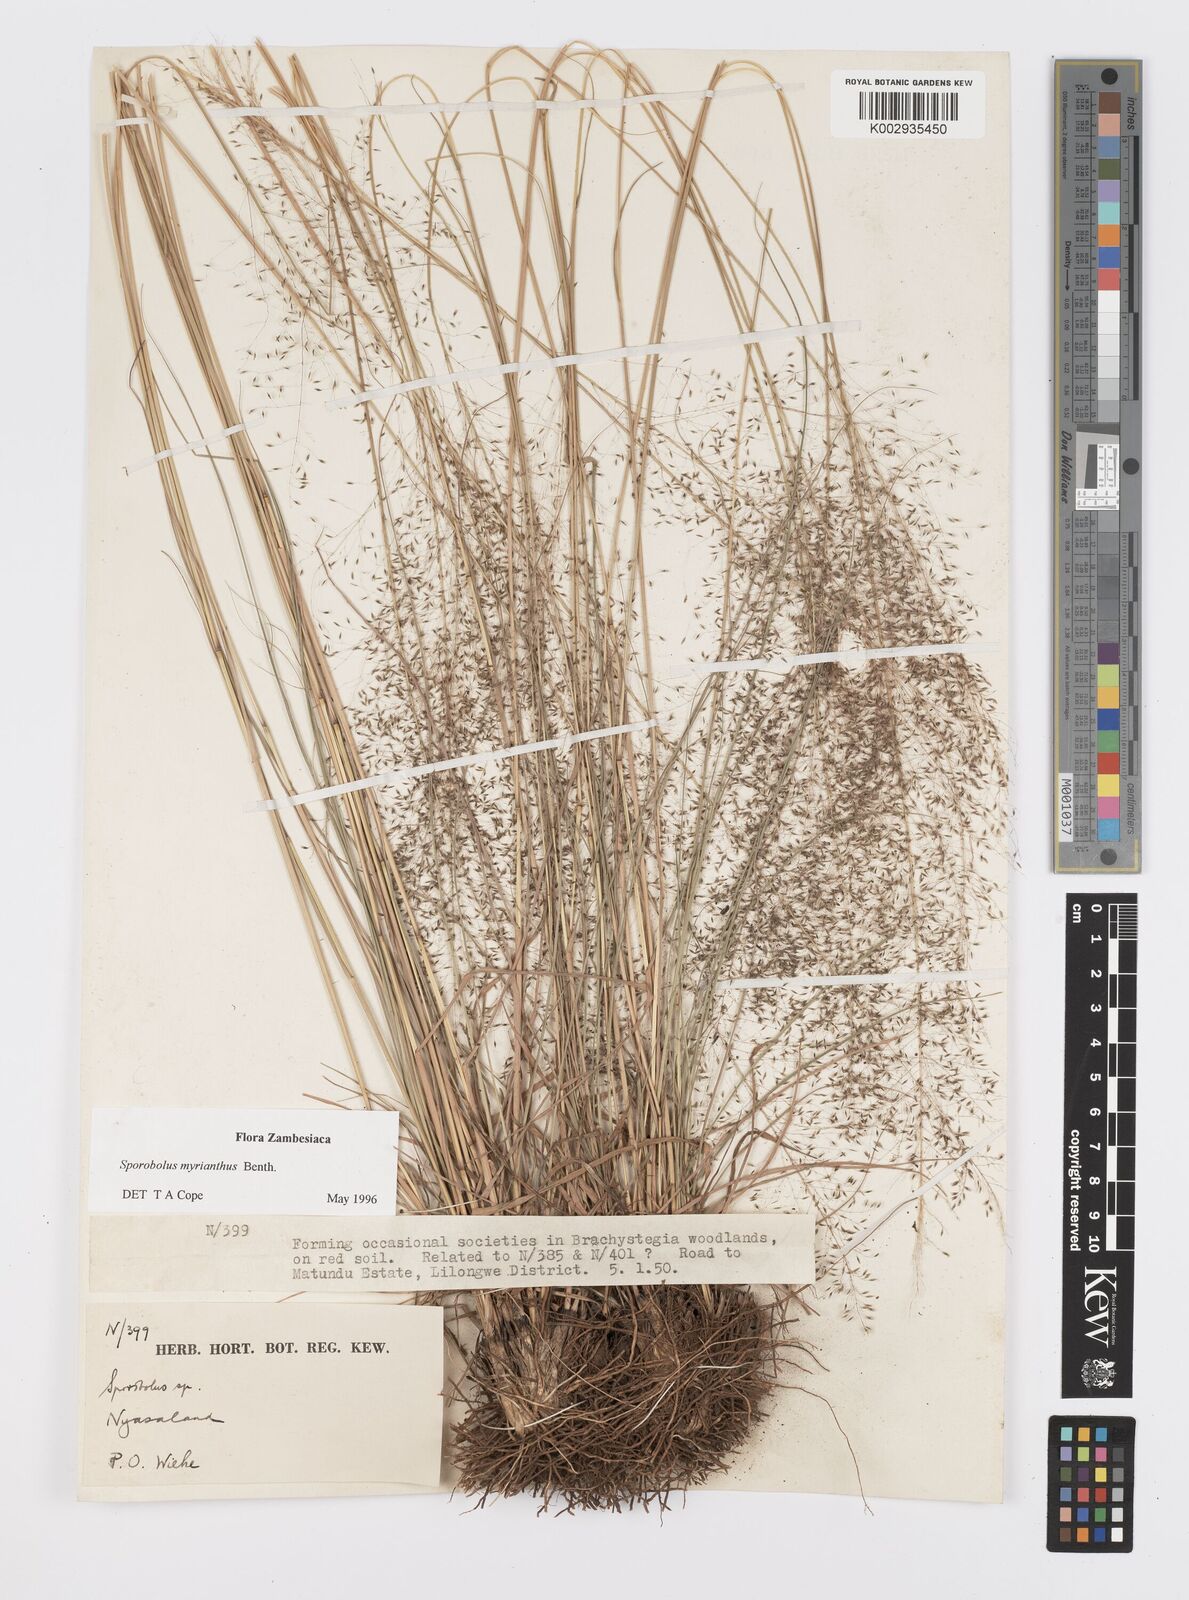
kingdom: Plantae
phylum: Tracheophyta
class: Liliopsida
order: Poales
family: Poaceae
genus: Sporobolus
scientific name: Sporobolus myrianthus
